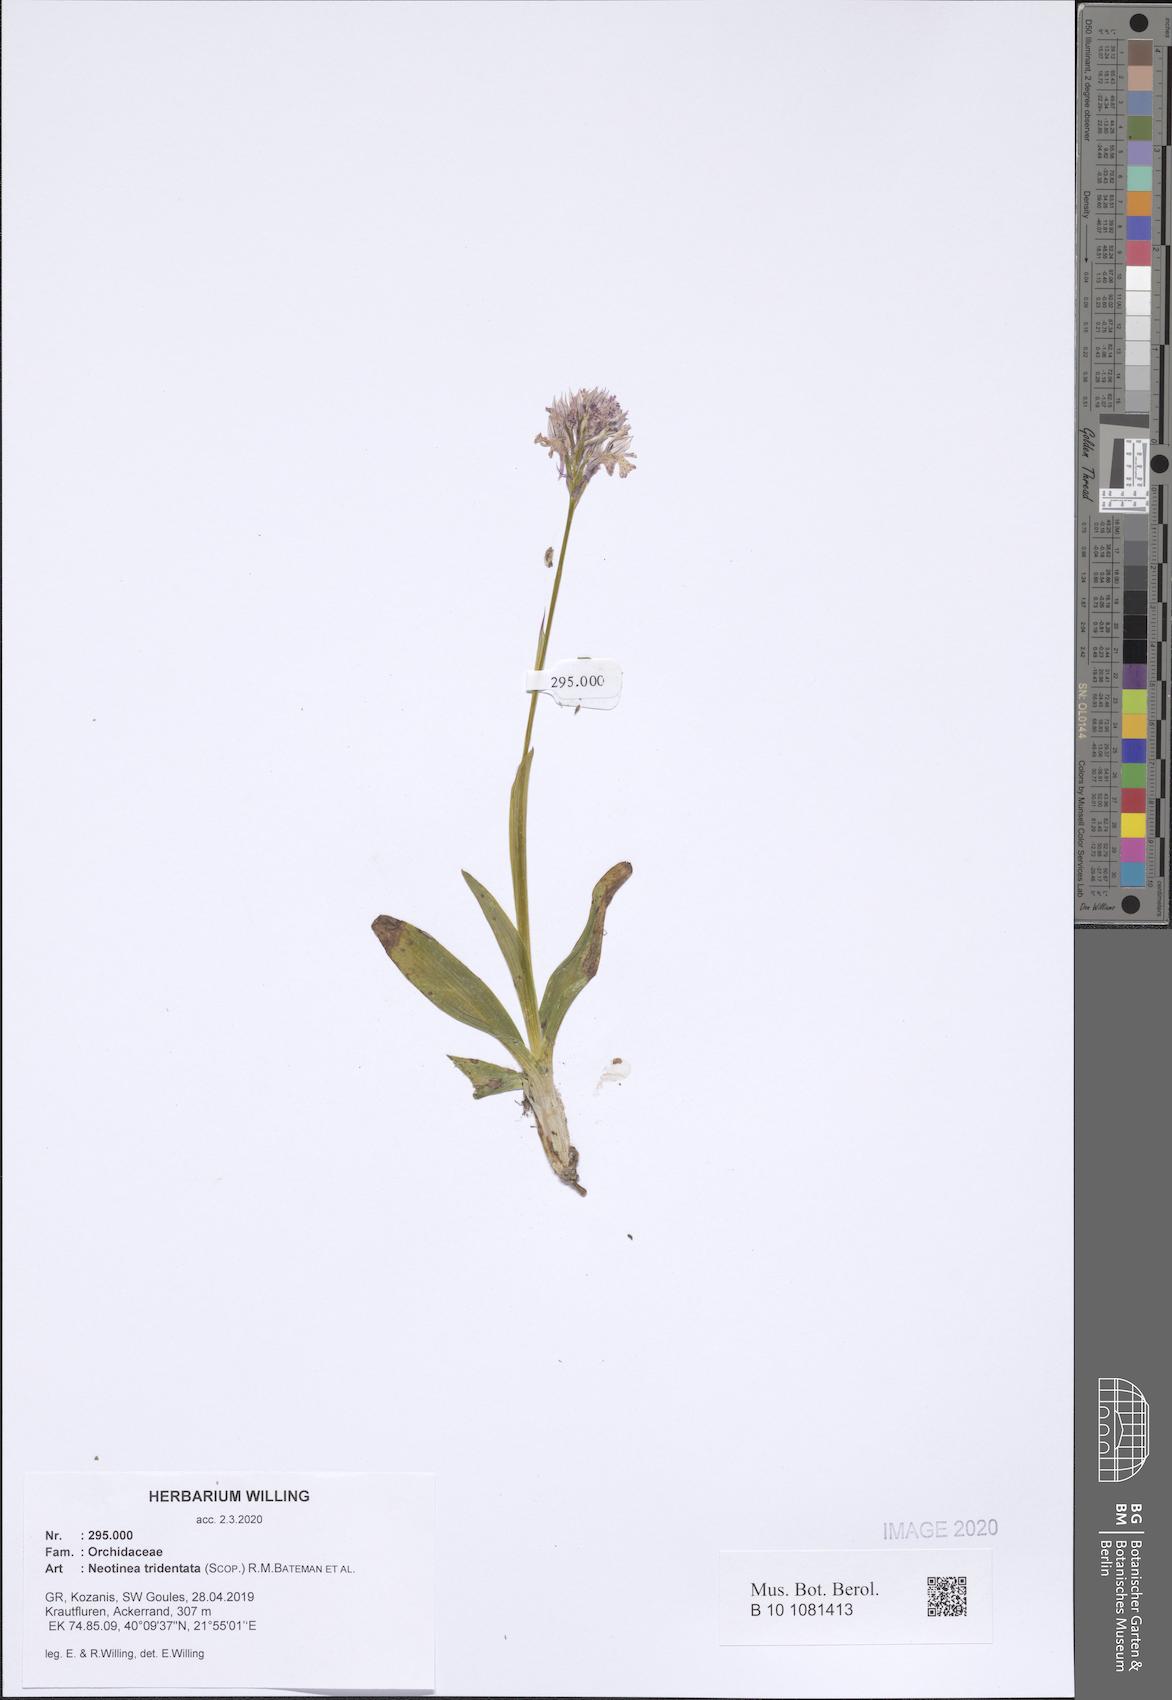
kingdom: Plantae
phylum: Tracheophyta
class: Liliopsida
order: Asparagales
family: Orchidaceae
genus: Neotinea
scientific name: Neotinea tridentata
